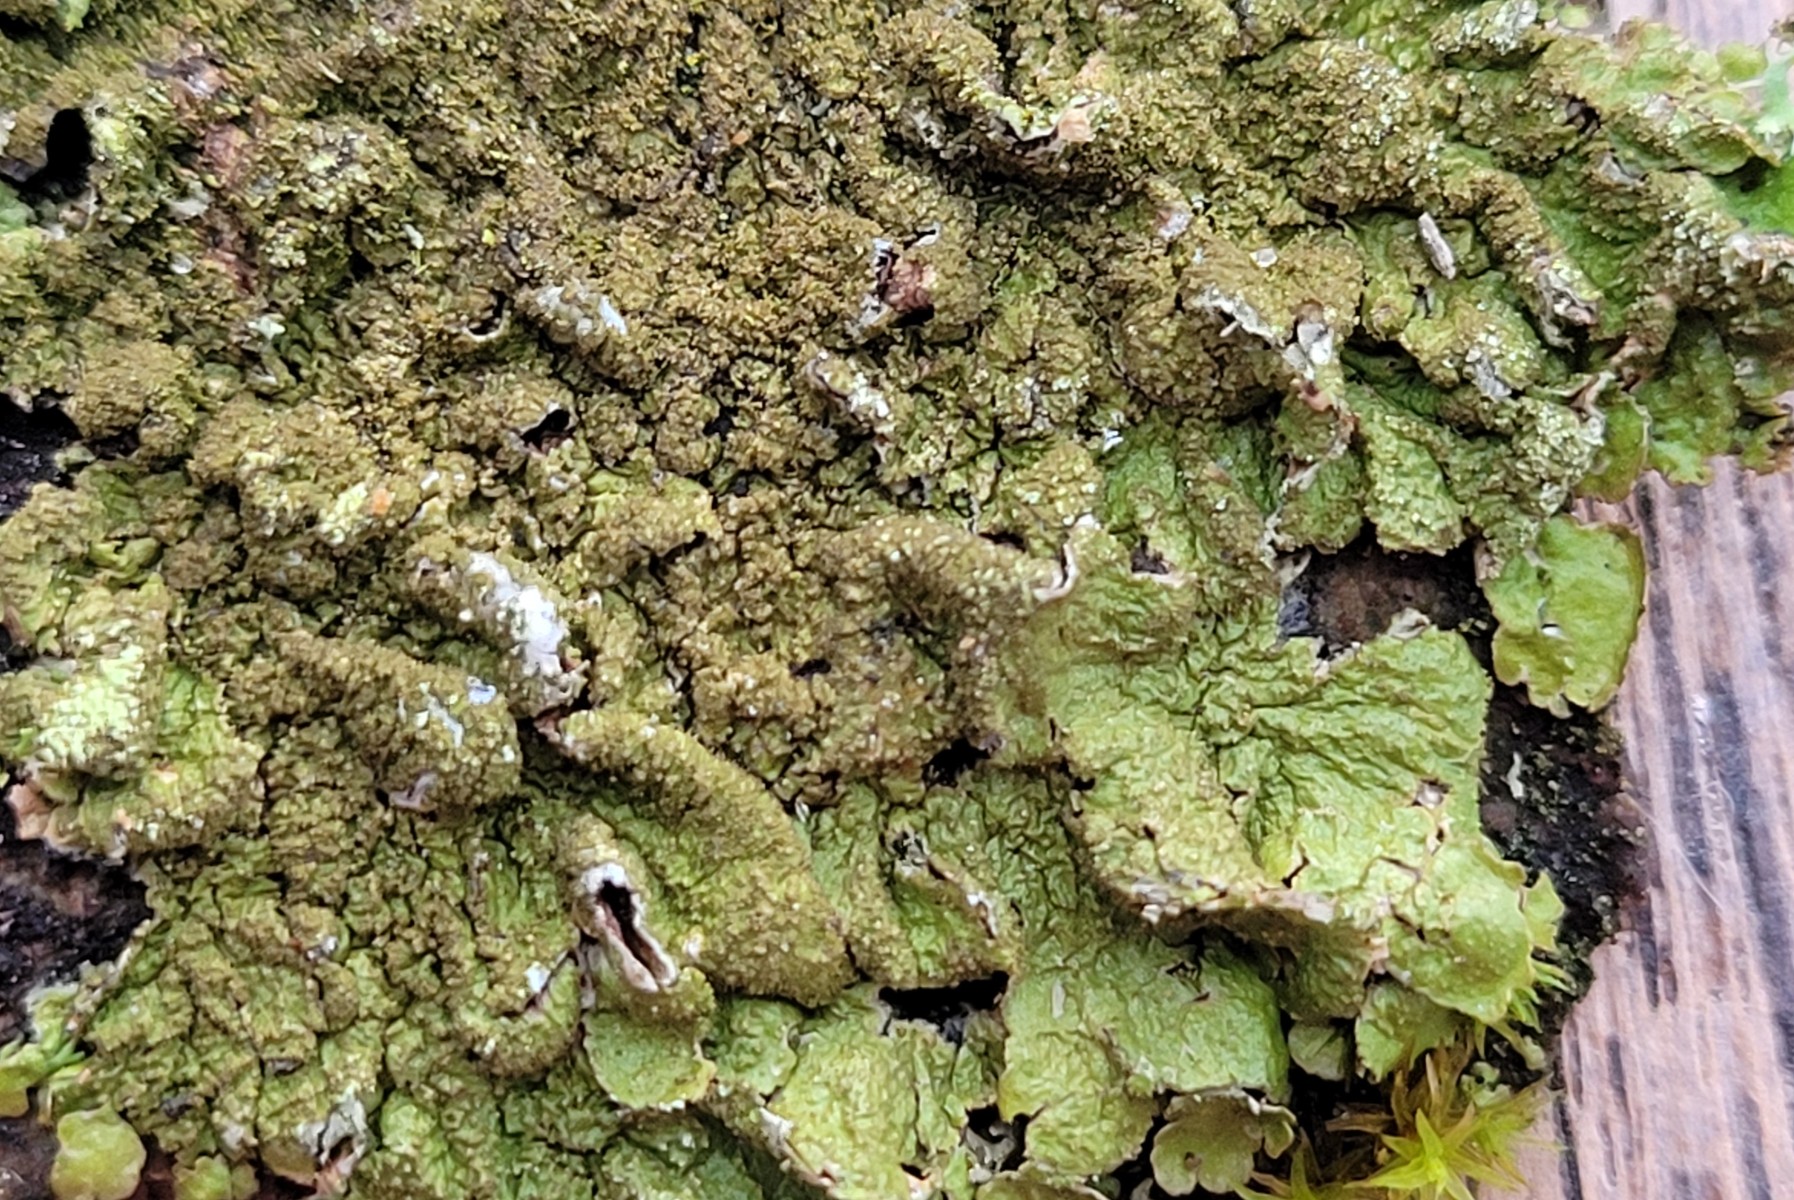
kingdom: Fungi
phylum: Ascomycota
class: Lecanoromycetes
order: Lecanorales
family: Parmeliaceae
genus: Melanelixia
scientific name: Melanelixia glabratula
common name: glinsende skållav
